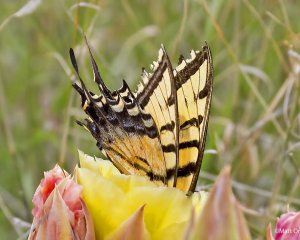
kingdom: Animalia
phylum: Arthropoda
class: Insecta
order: Lepidoptera
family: Papilionidae
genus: Papilio
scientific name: Papilio multicaudata
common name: Two-tailed Swallowtail
